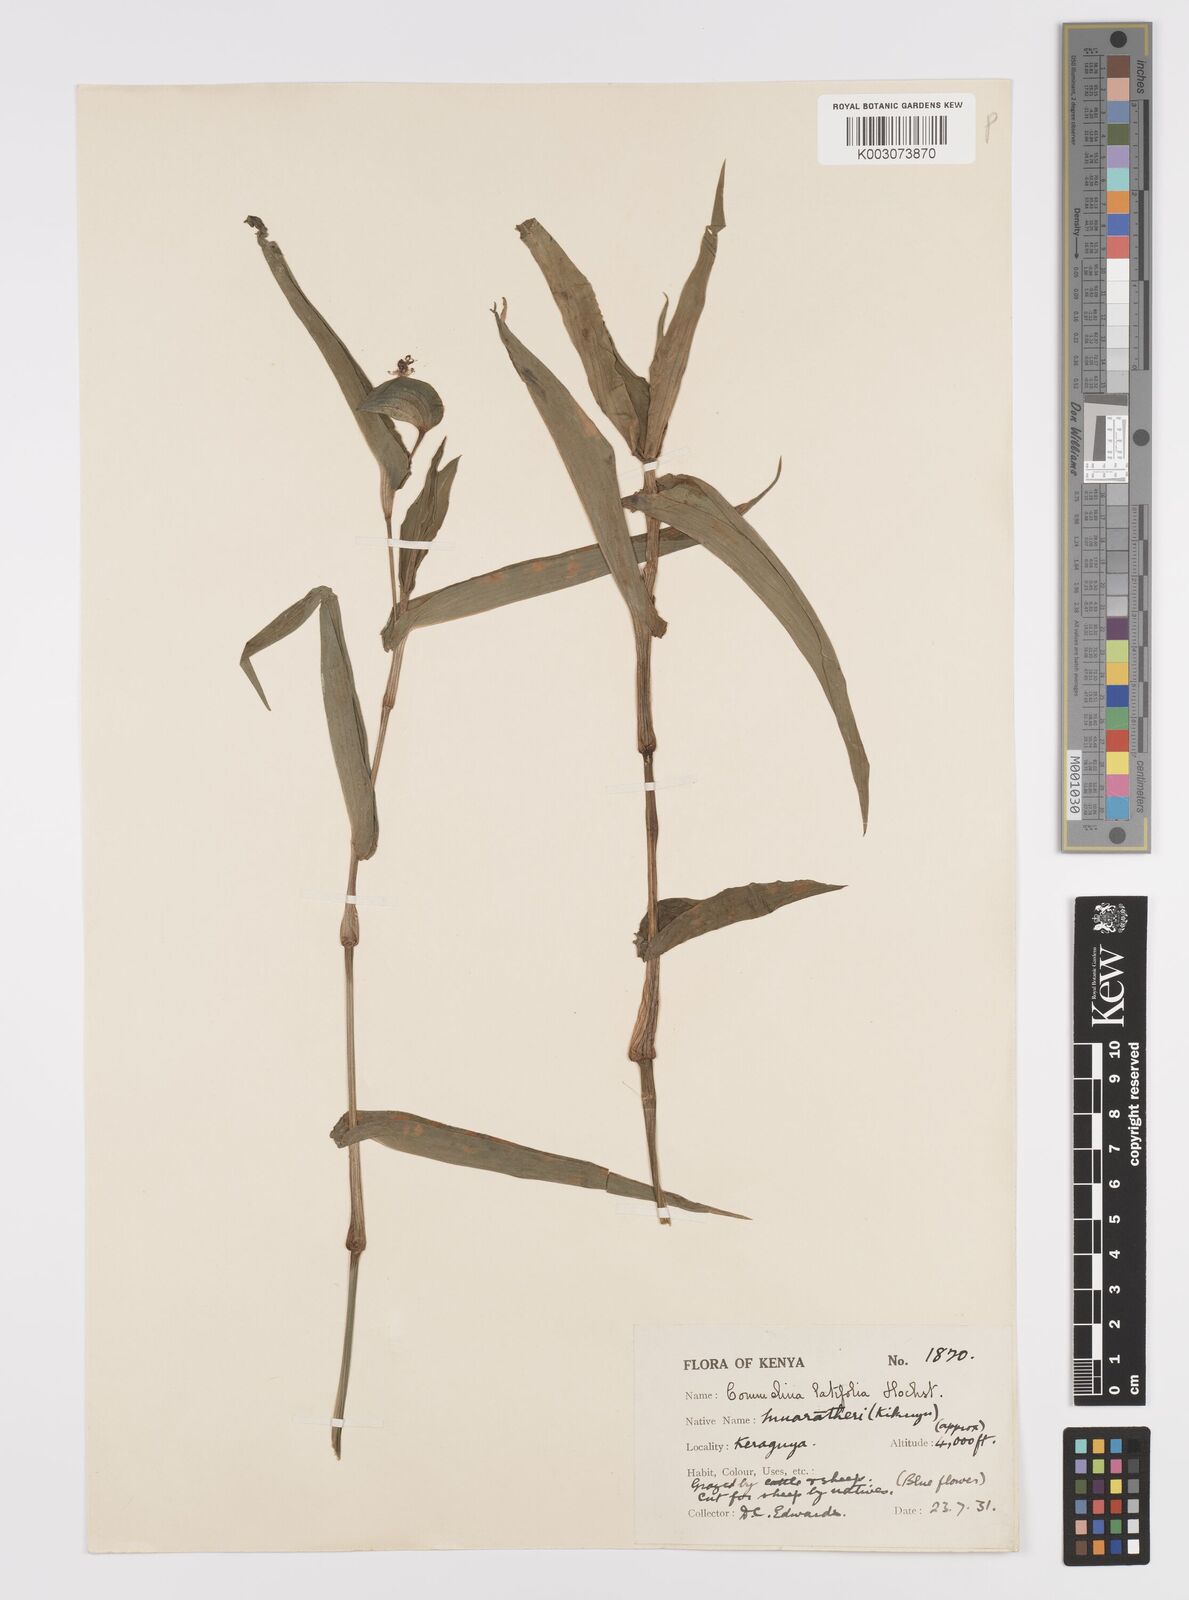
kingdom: Plantae
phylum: Tracheophyta
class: Liliopsida
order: Commelinales
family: Commelinaceae
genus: Commelina
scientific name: Commelina latifolia
